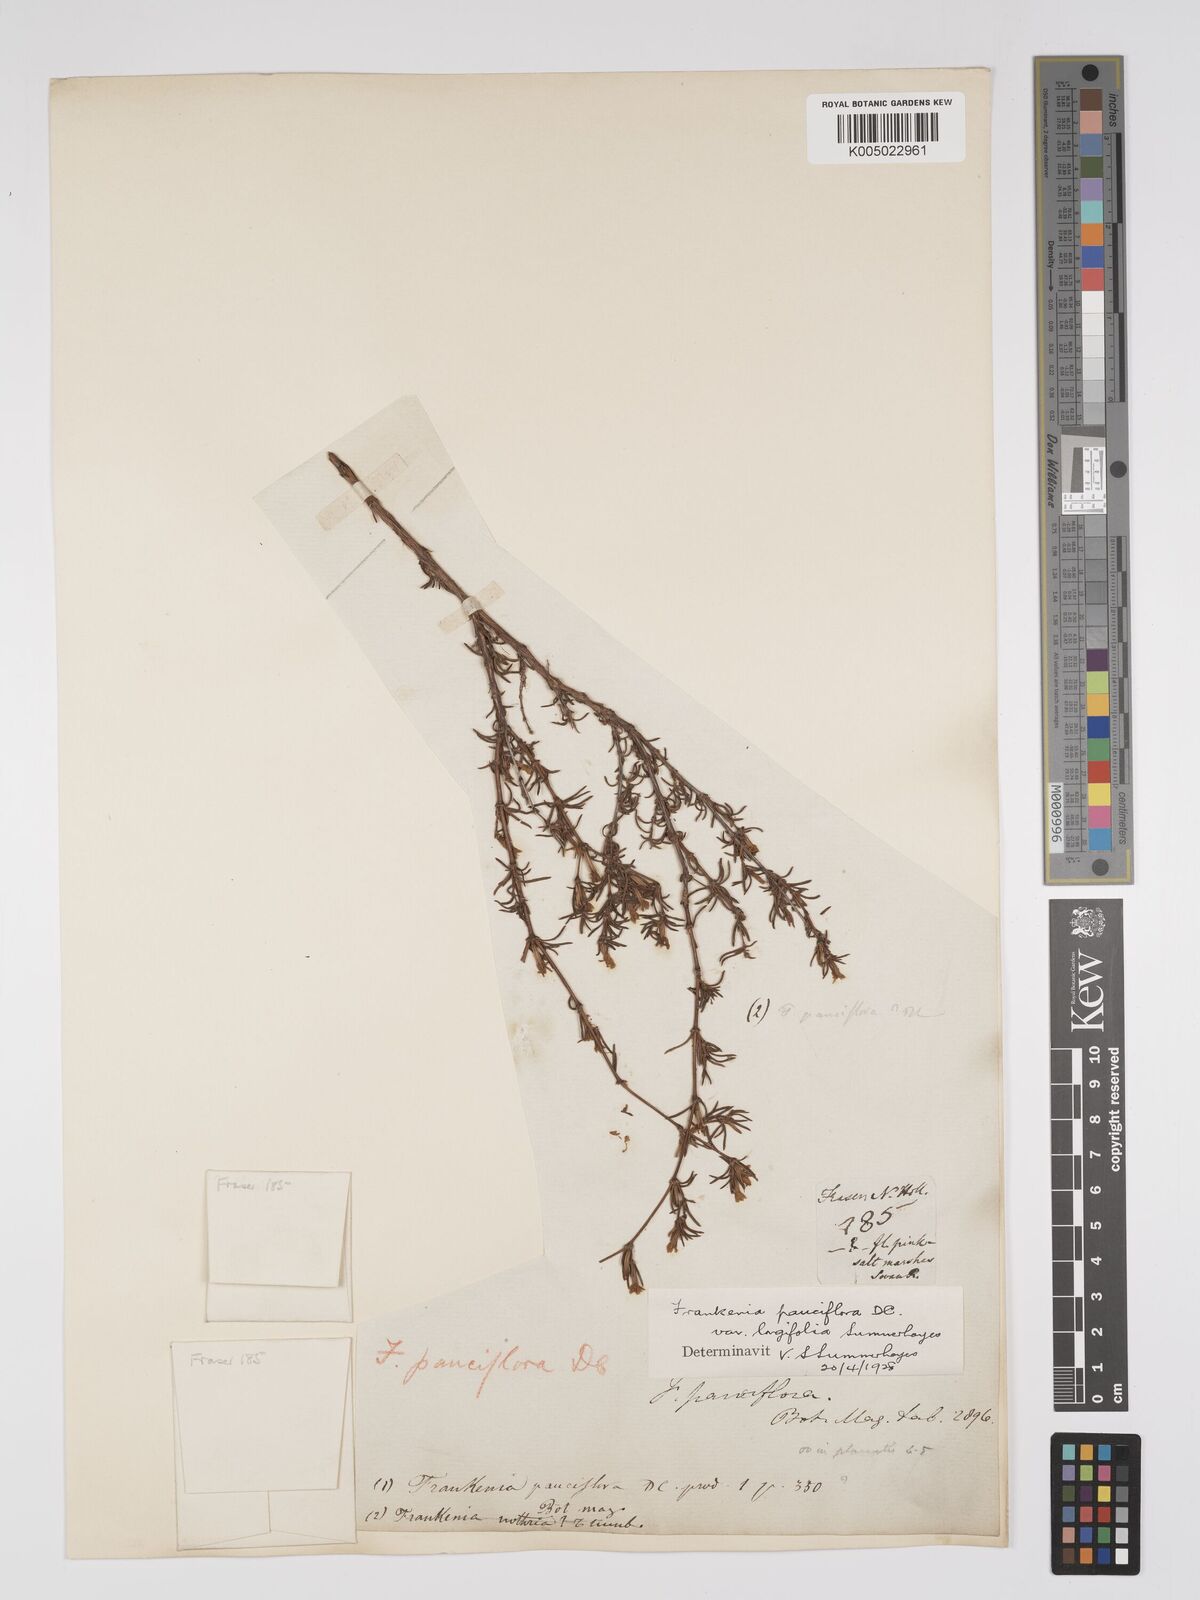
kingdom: Plantae
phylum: Tracheophyta
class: Magnoliopsida
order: Caryophyllales
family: Frankeniaceae
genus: Frankenia
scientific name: Frankenia pauciflora
